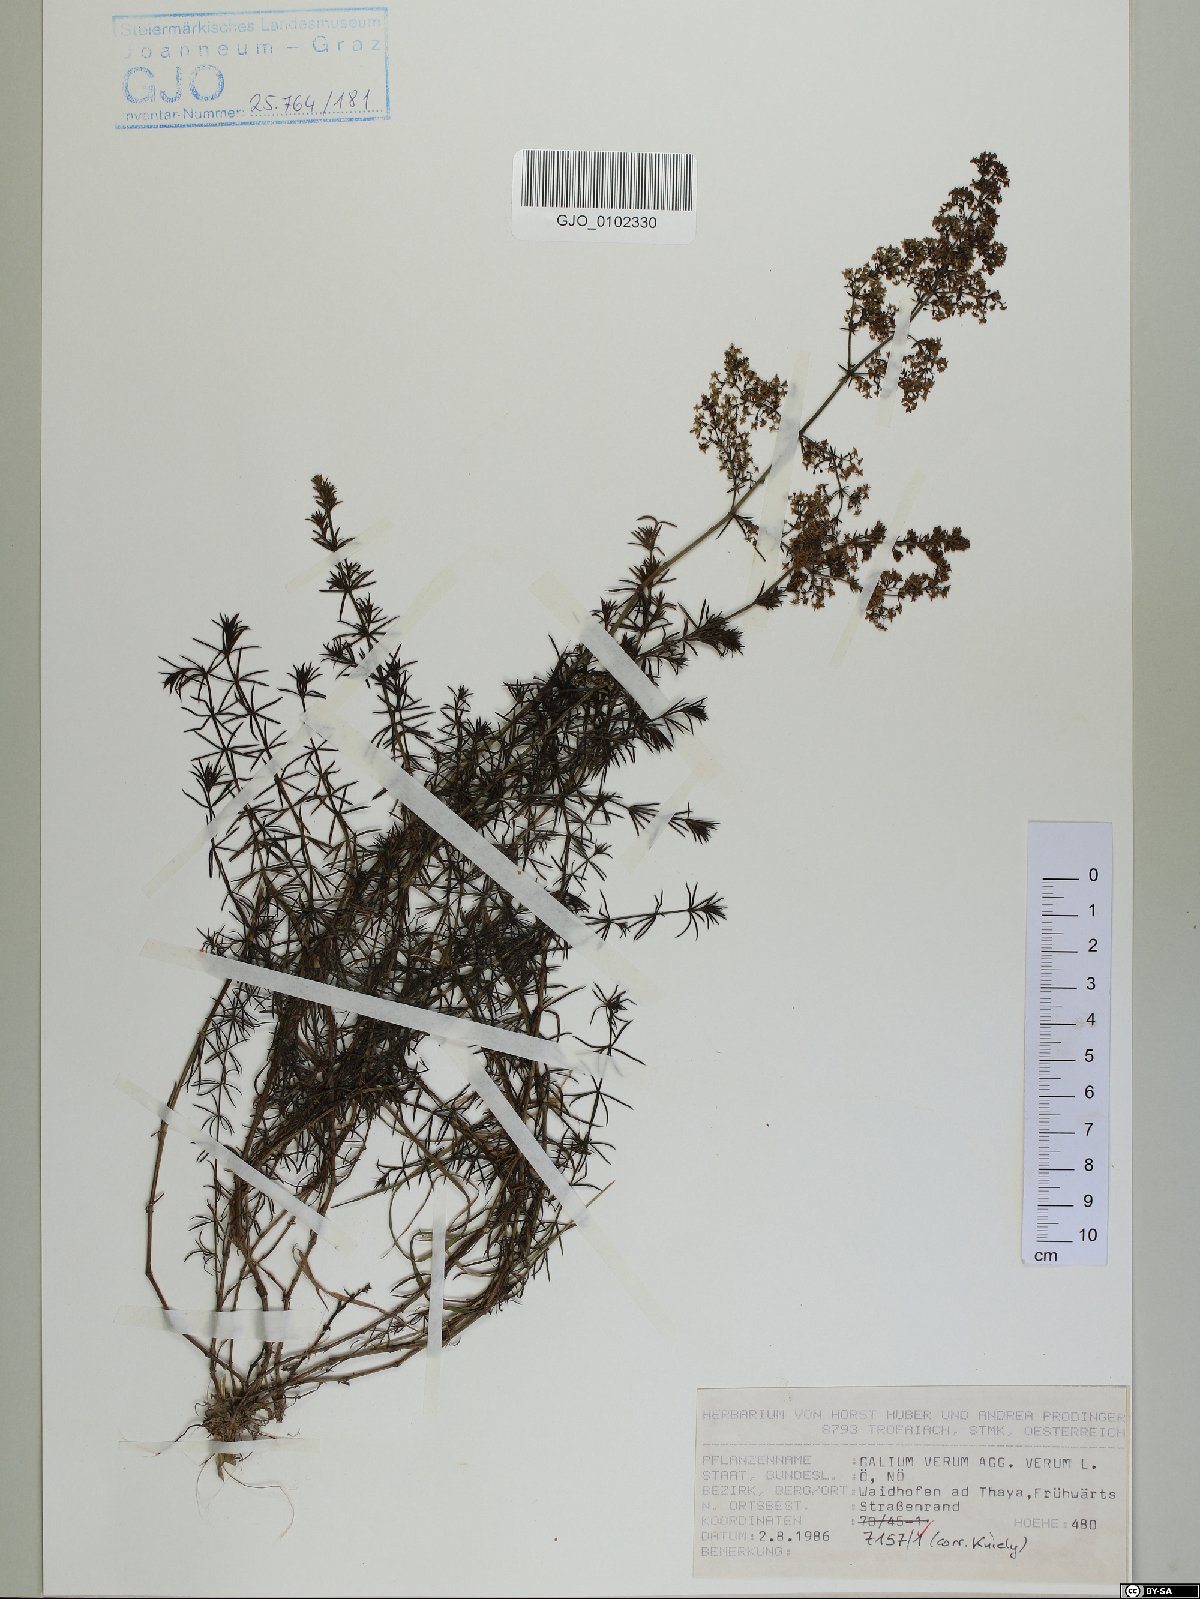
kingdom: Plantae
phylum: Tracheophyta
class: Magnoliopsida
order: Gentianales
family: Rubiaceae
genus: Galium
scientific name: Galium verum
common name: Lady's bedstraw
